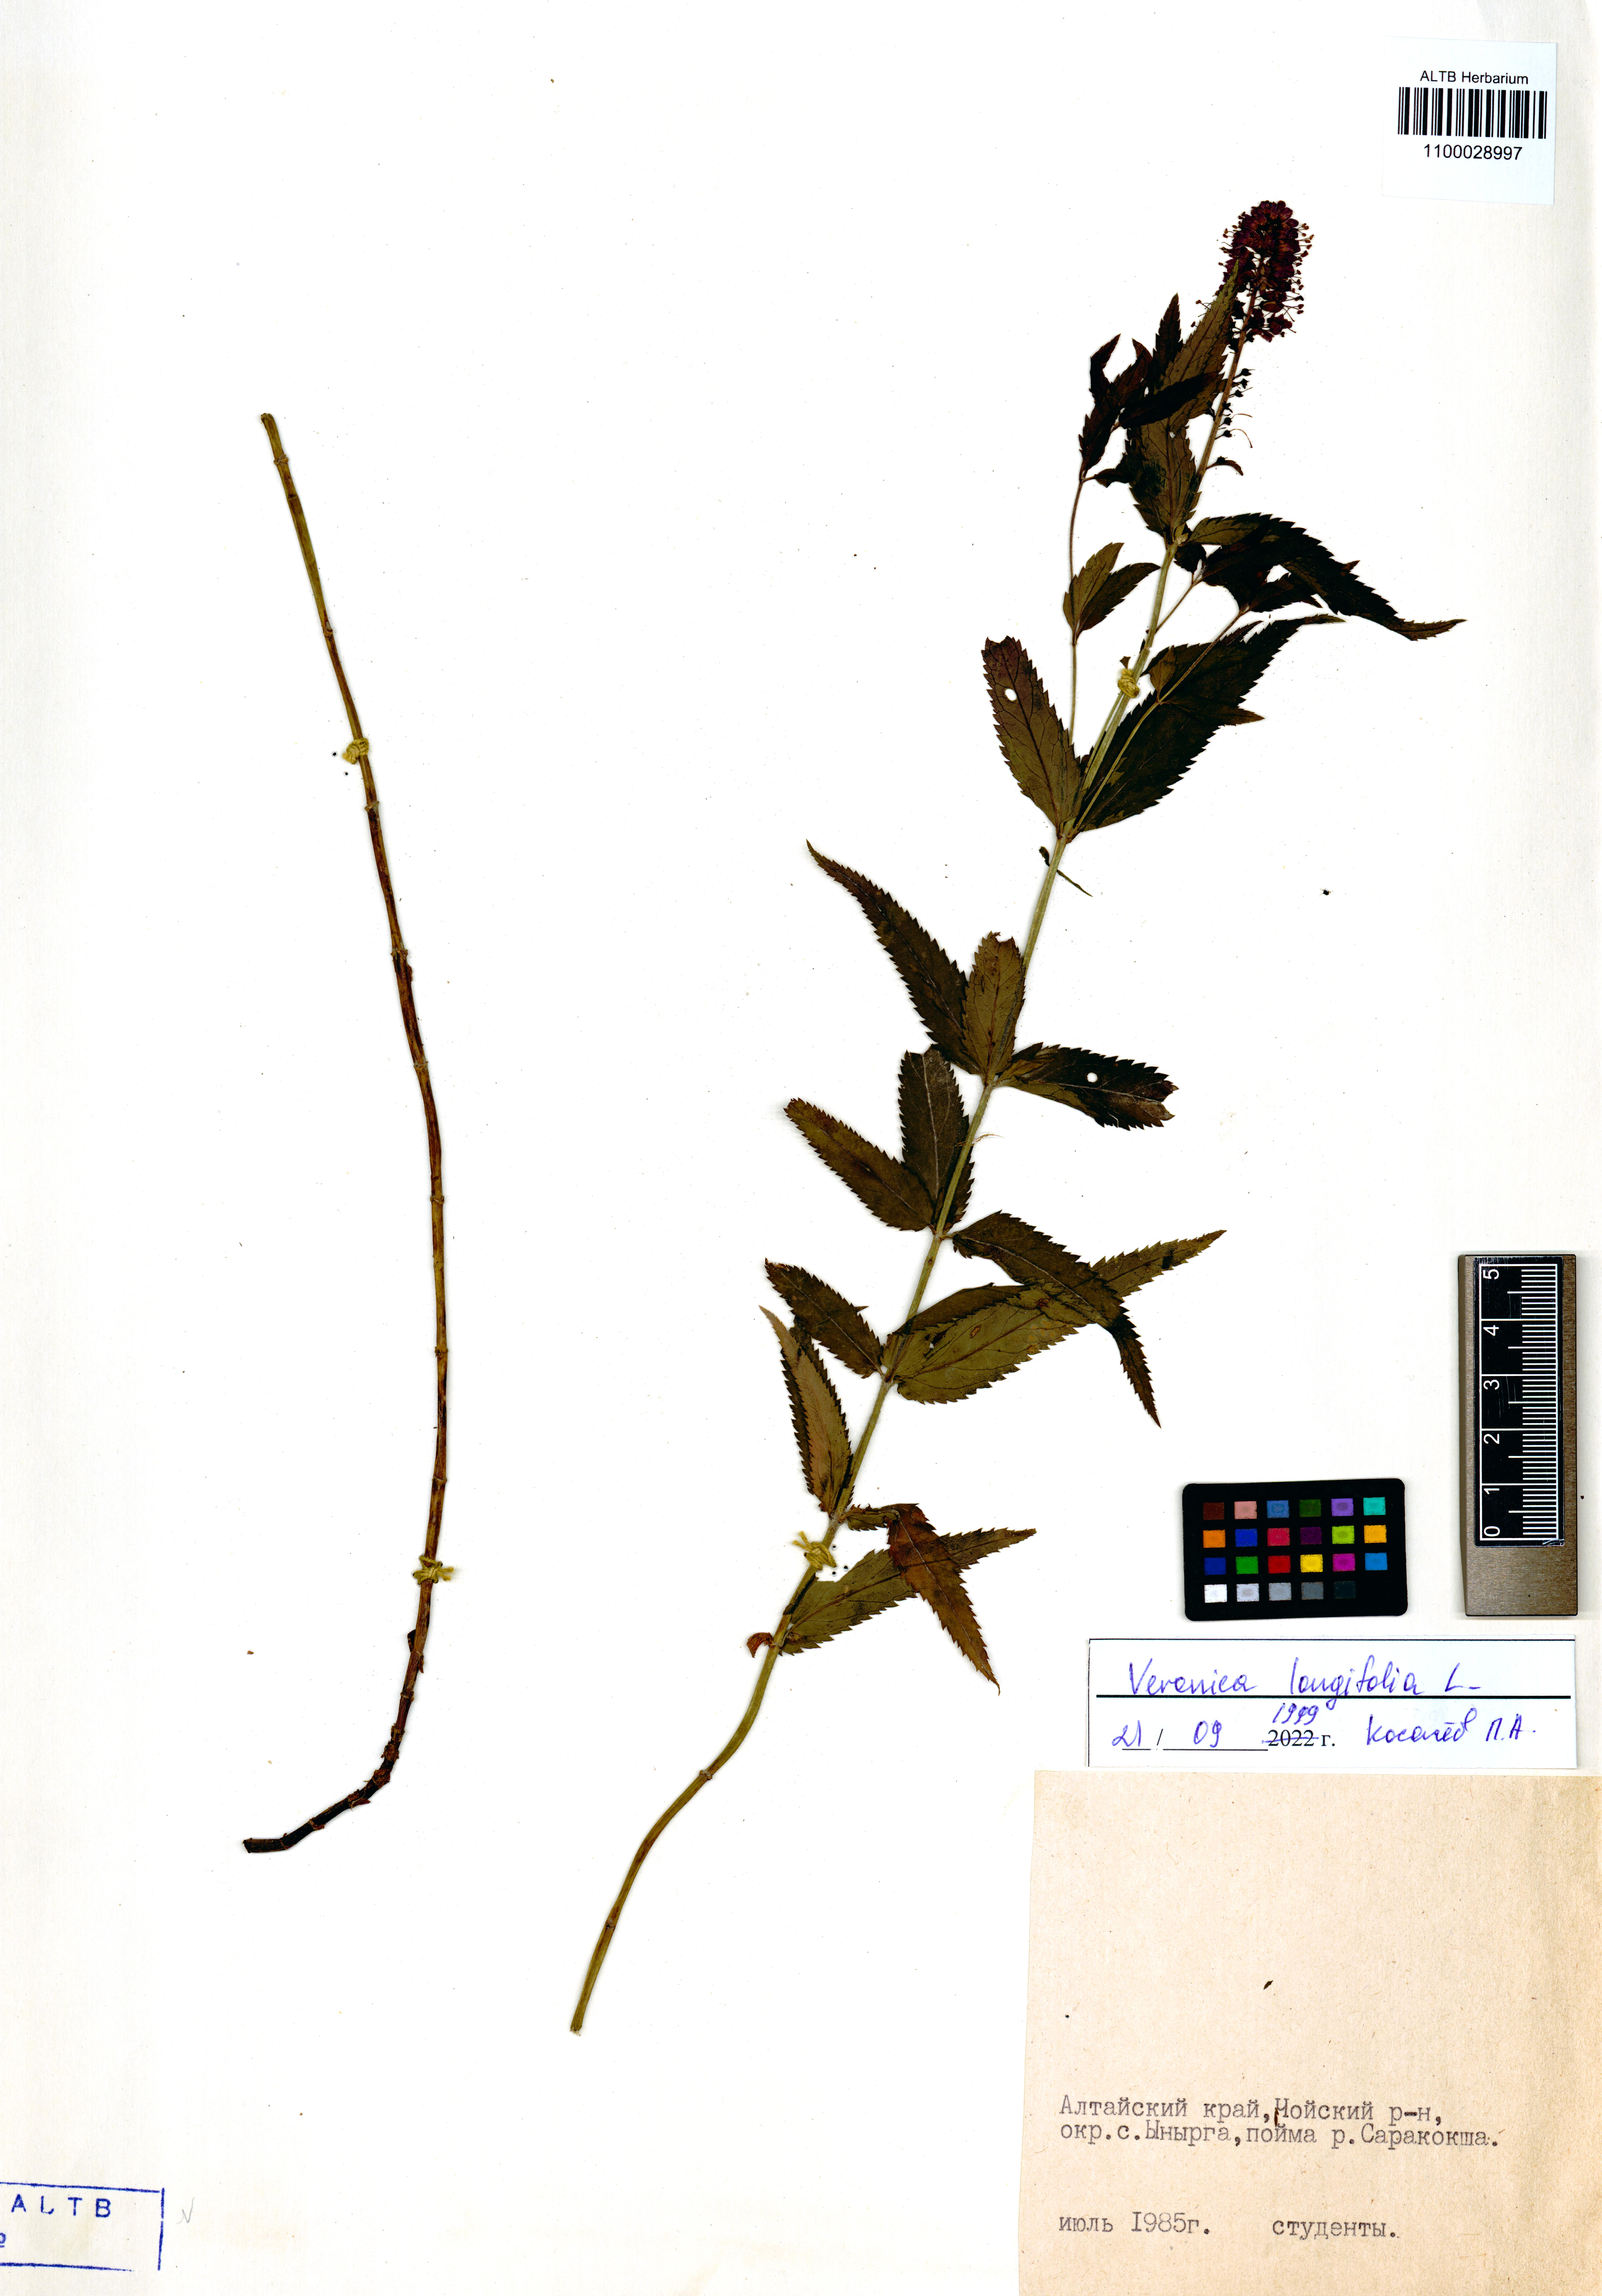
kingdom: Plantae
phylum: Tracheophyta
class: Magnoliopsida
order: Lamiales
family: Plantaginaceae
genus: Veronica
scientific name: Veronica longifolia
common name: Garden speedwell
